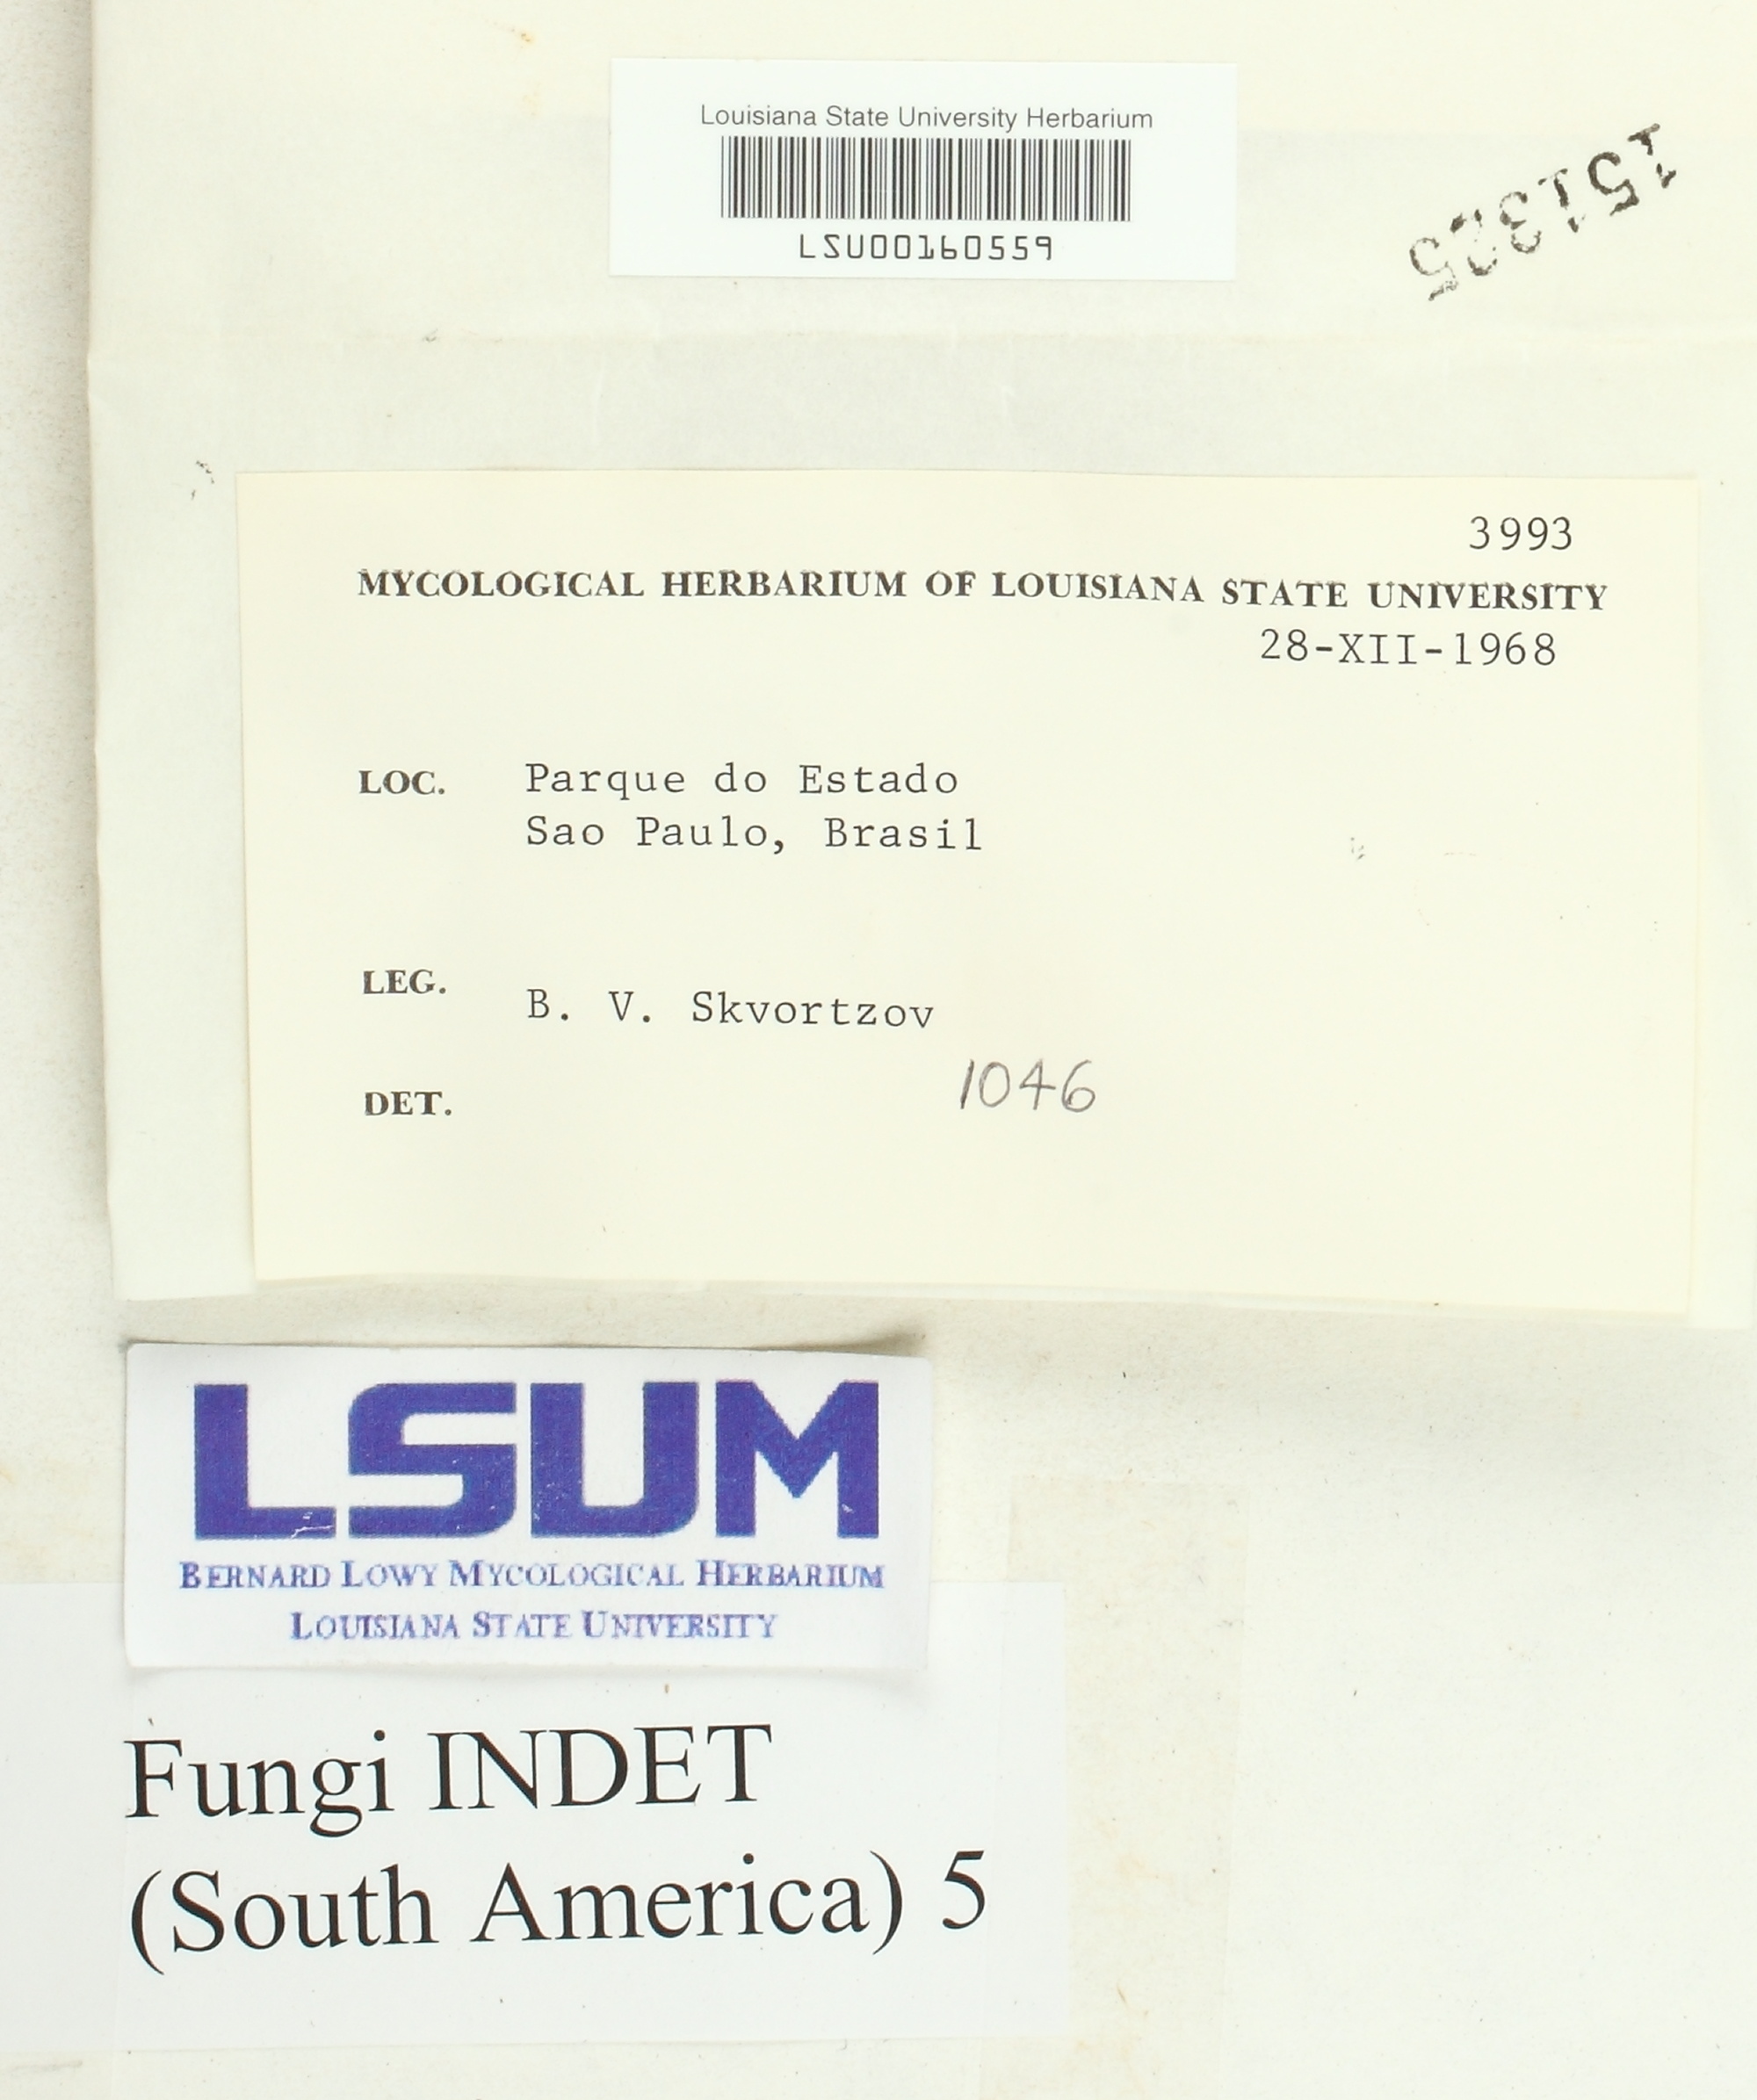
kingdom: Fungi
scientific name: Fungi
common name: Fungi
